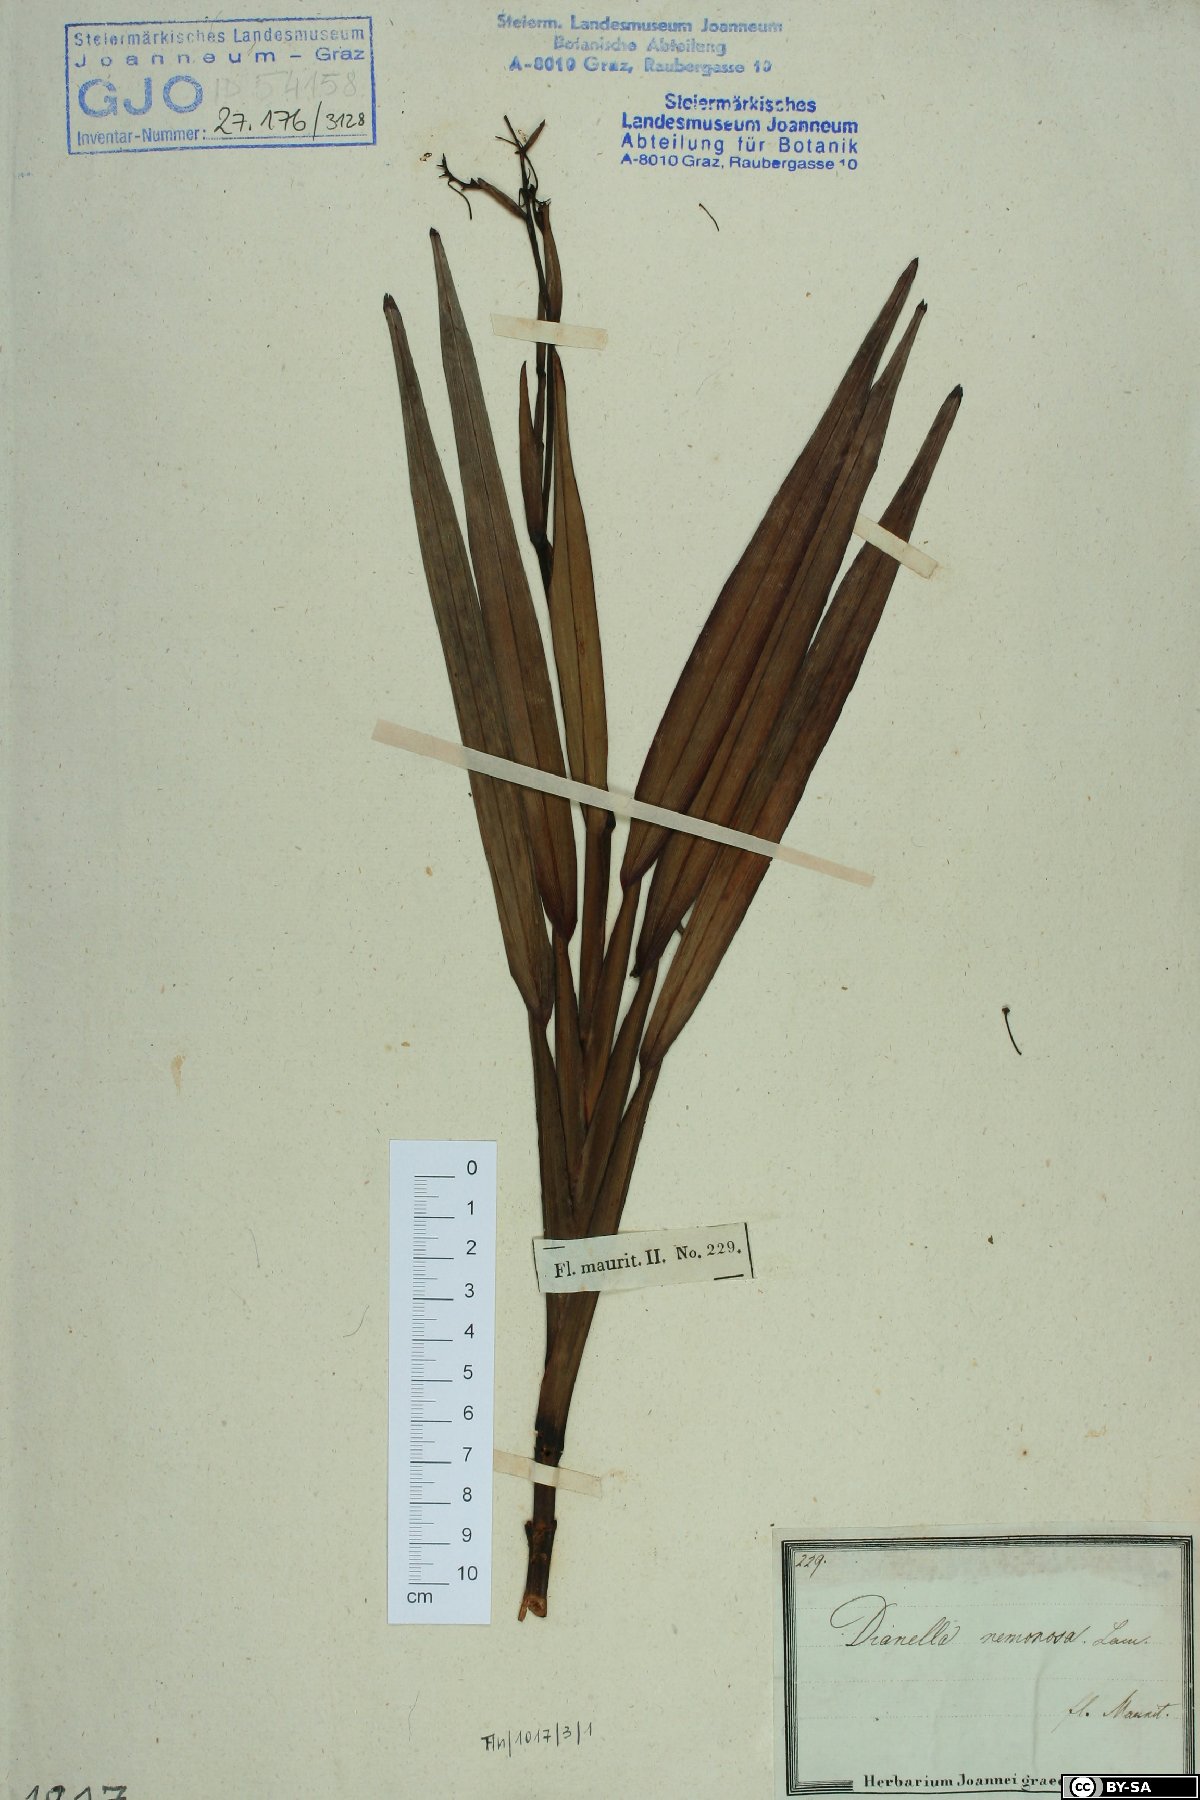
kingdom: Plantae
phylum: Tracheophyta
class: Liliopsida
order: Asparagales
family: Asphodelaceae
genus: Dianella
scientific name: Dianella ensifolia
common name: New zealand lilyplant
